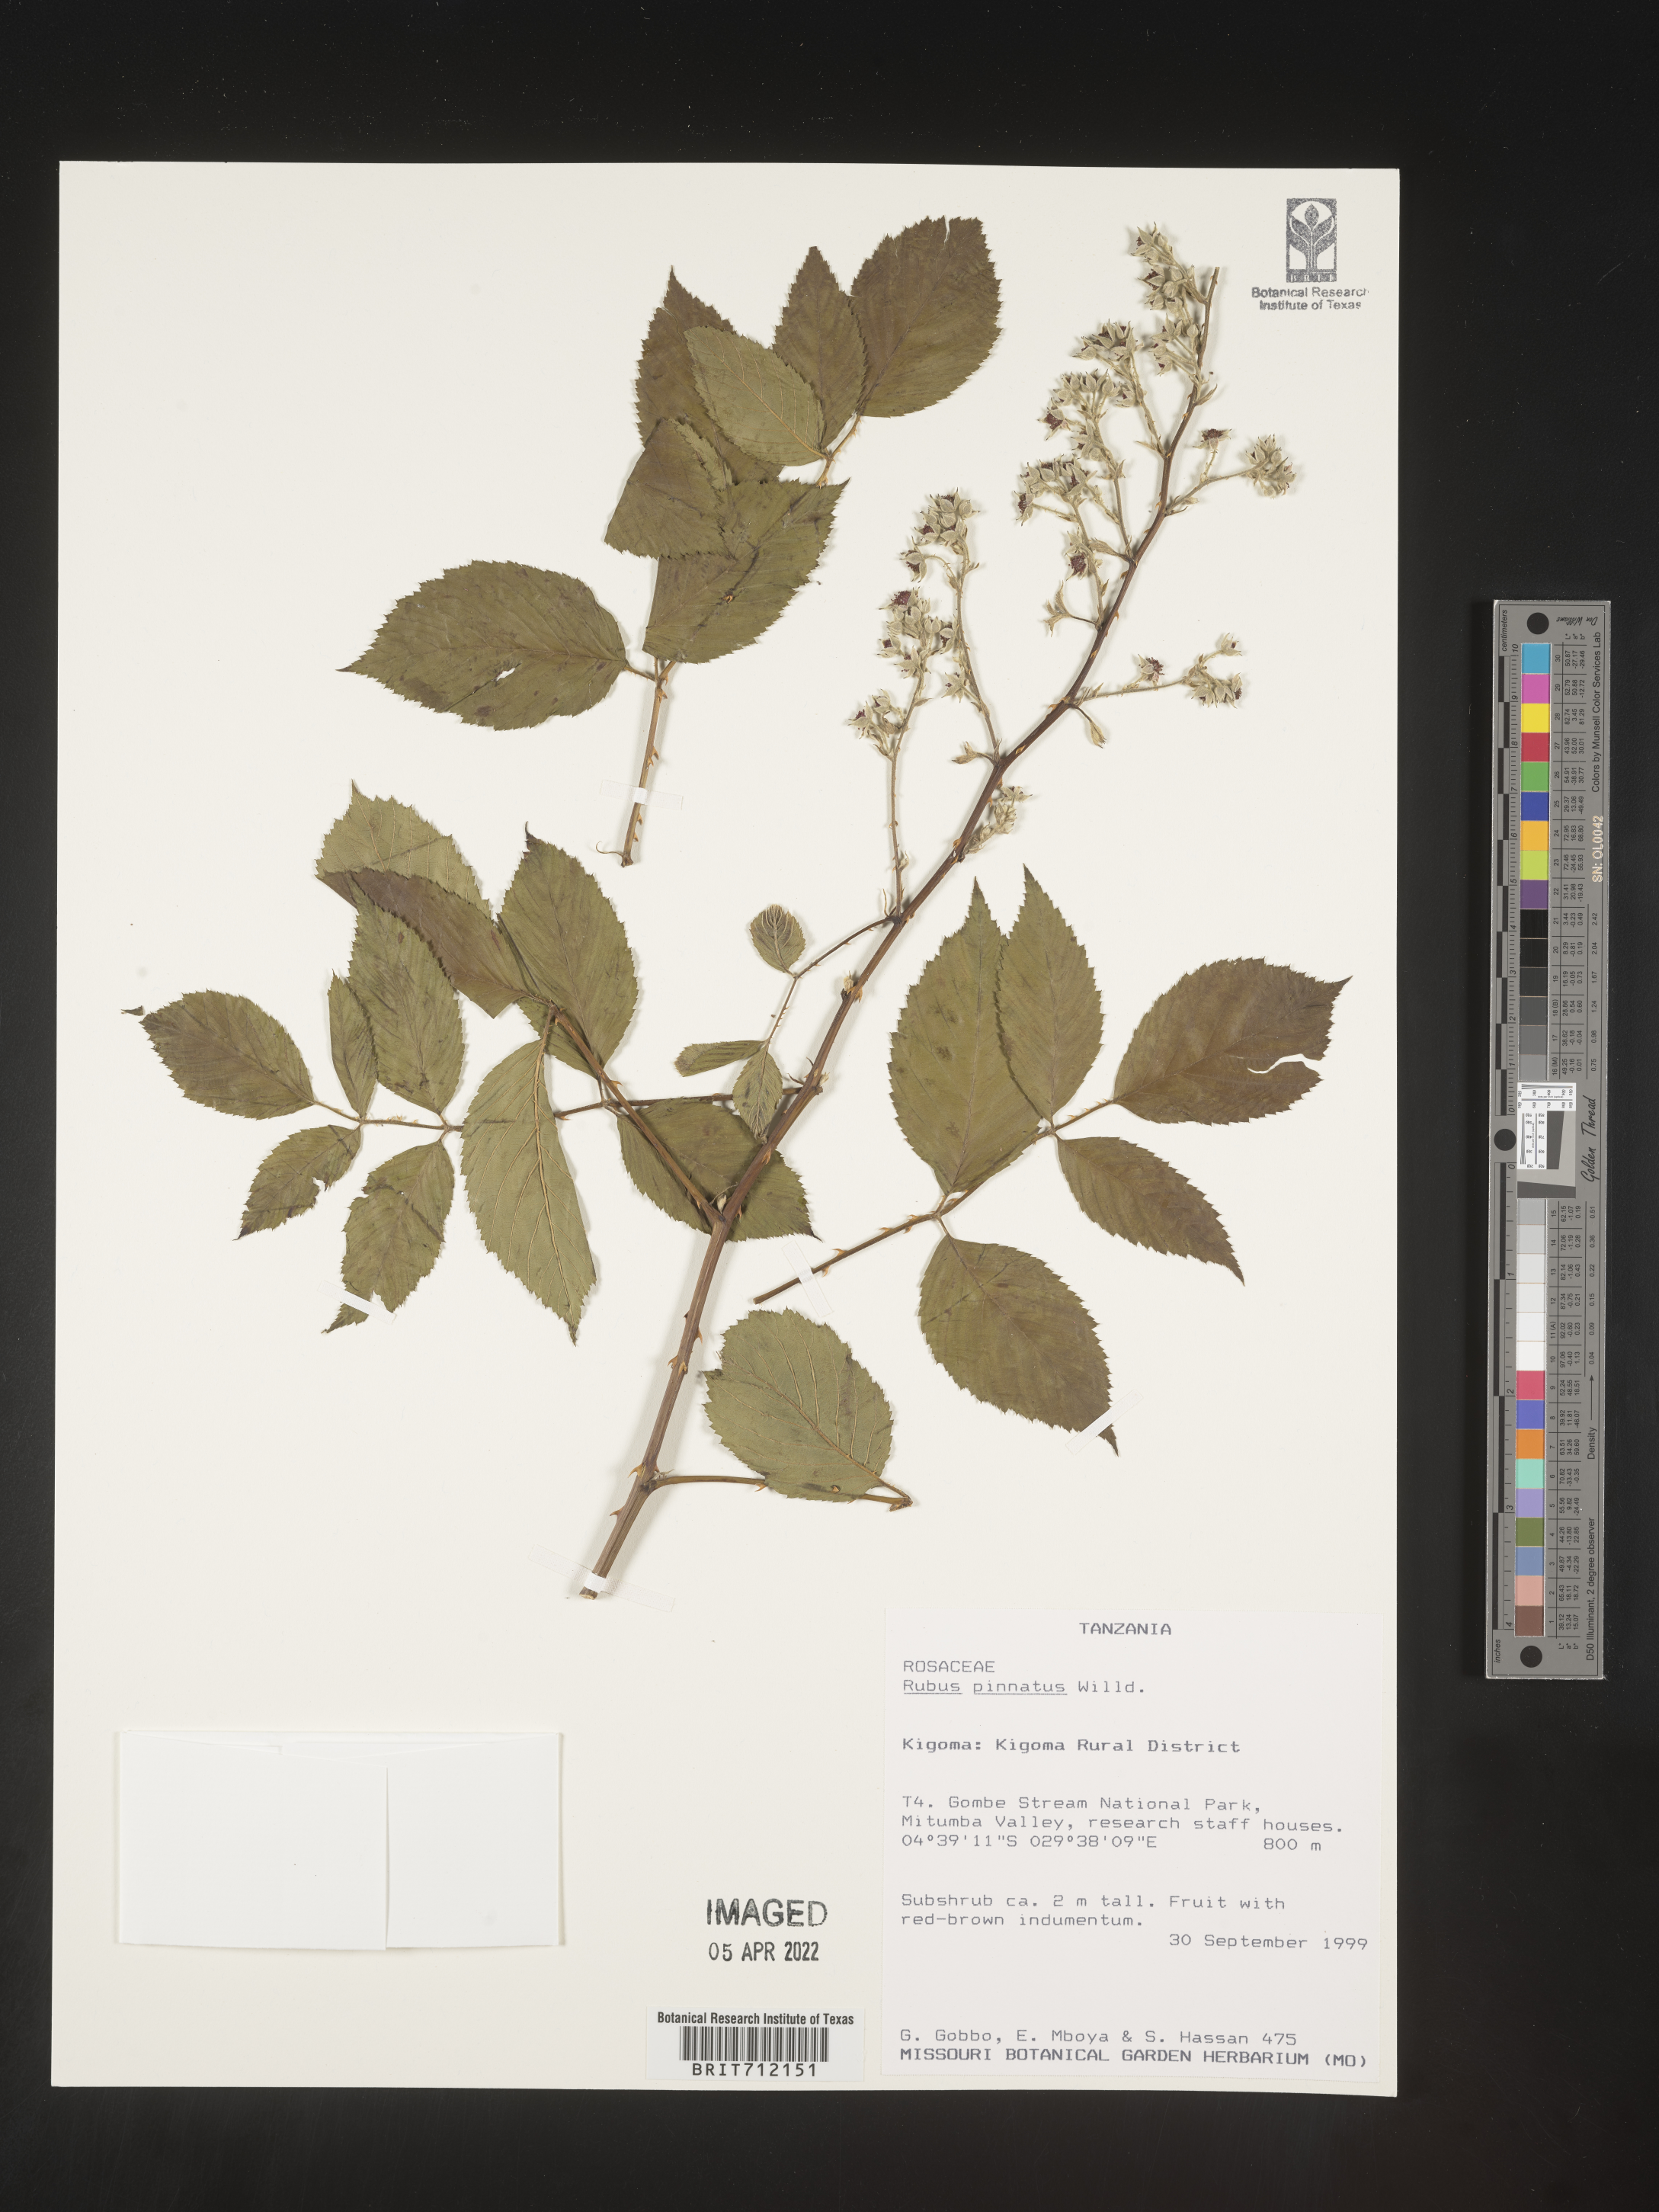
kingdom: Plantae
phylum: Tracheophyta
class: Magnoliopsida
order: Rosales
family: Rosaceae
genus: Rubus
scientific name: Rubus
